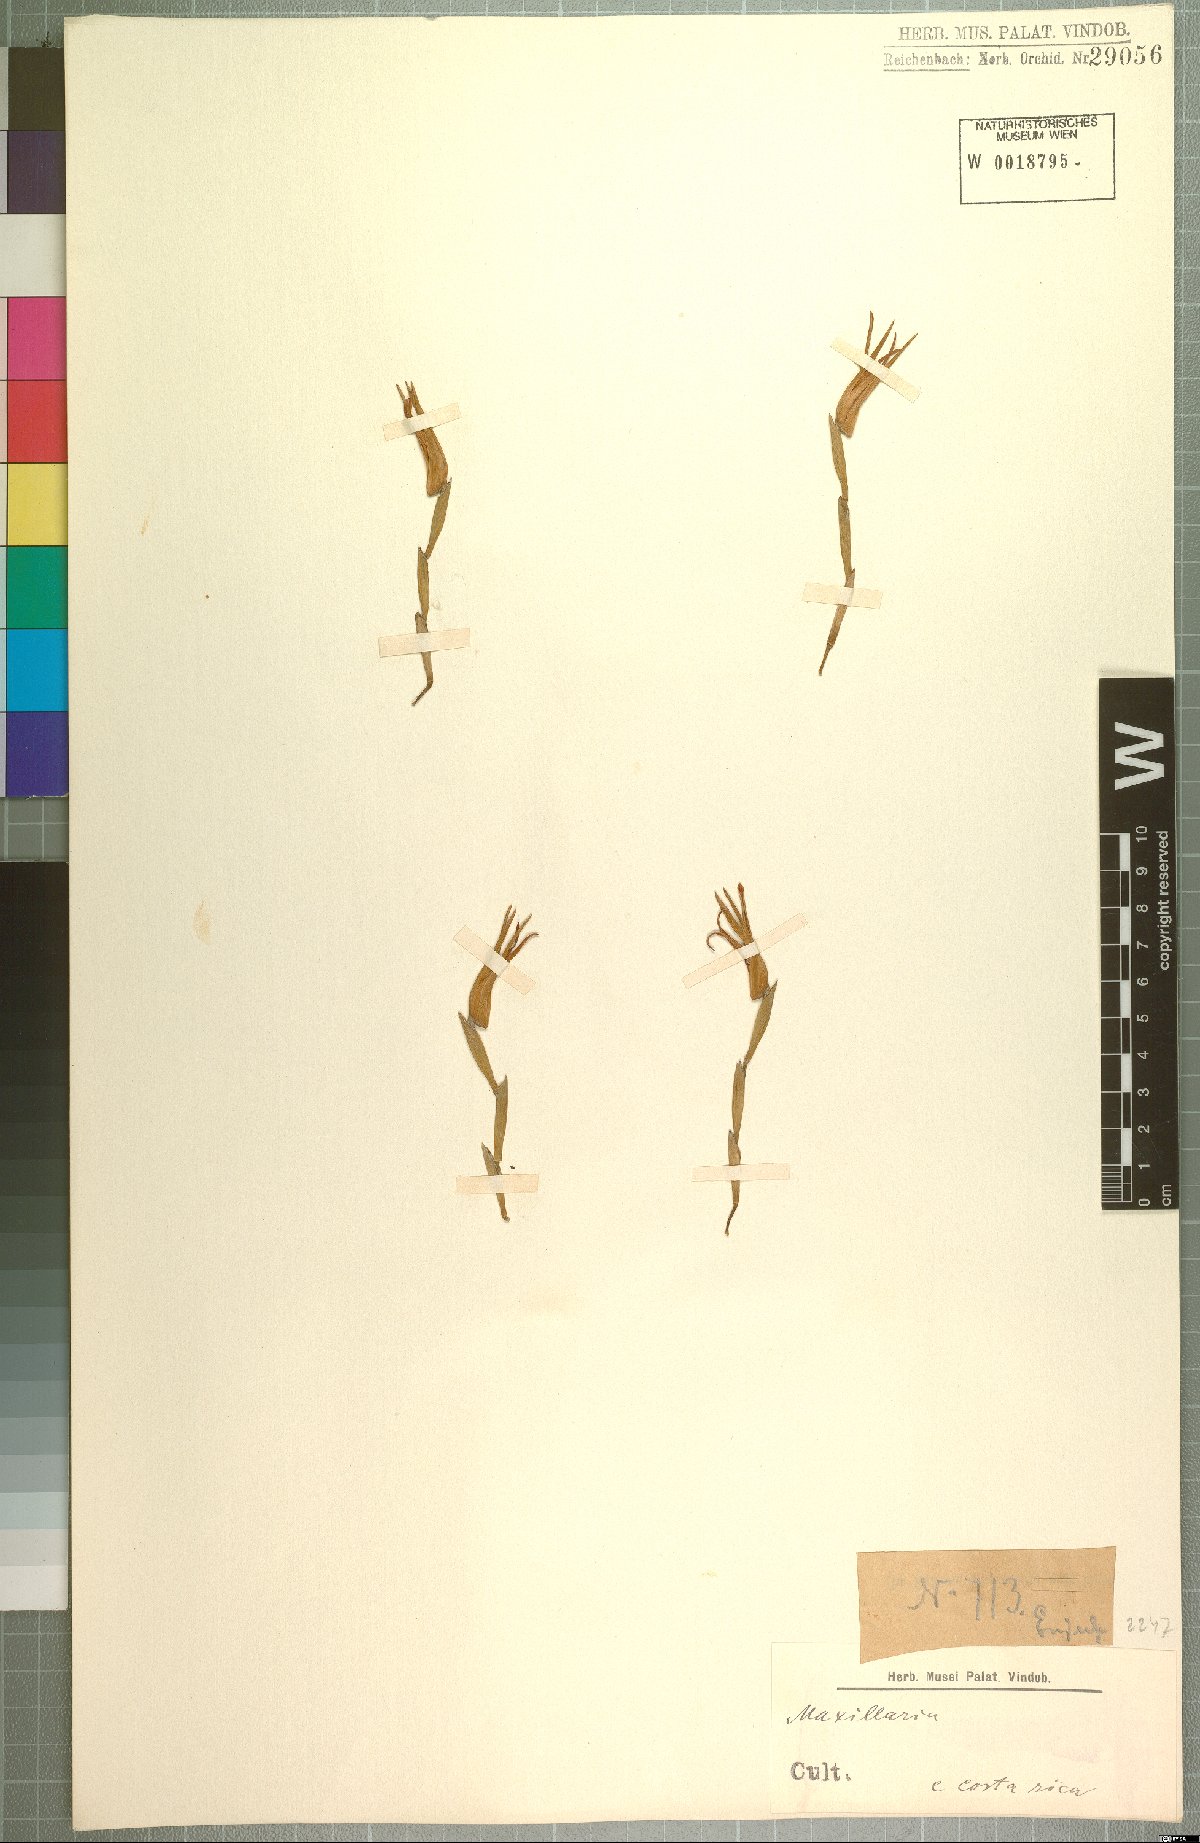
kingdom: Plantae
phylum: Tracheophyta
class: Liliopsida
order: Asparagales
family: Orchidaceae
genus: Maxillaria
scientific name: Maxillaria
